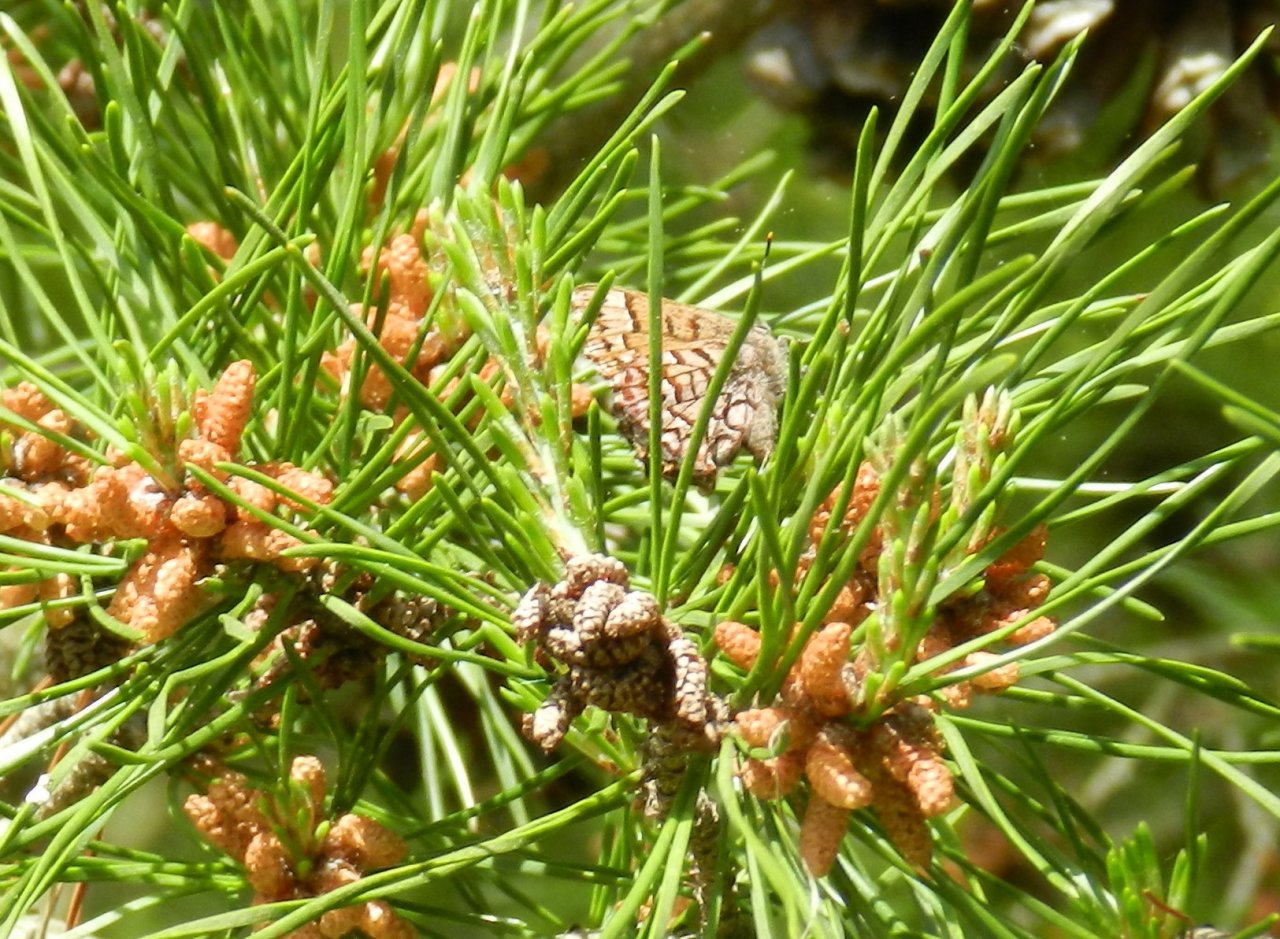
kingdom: Animalia
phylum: Arthropoda
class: Insecta
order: Lepidoptera
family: Lycaenidae
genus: Incisalia
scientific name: Incisalia niphon
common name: Eastern Pine Elfin
